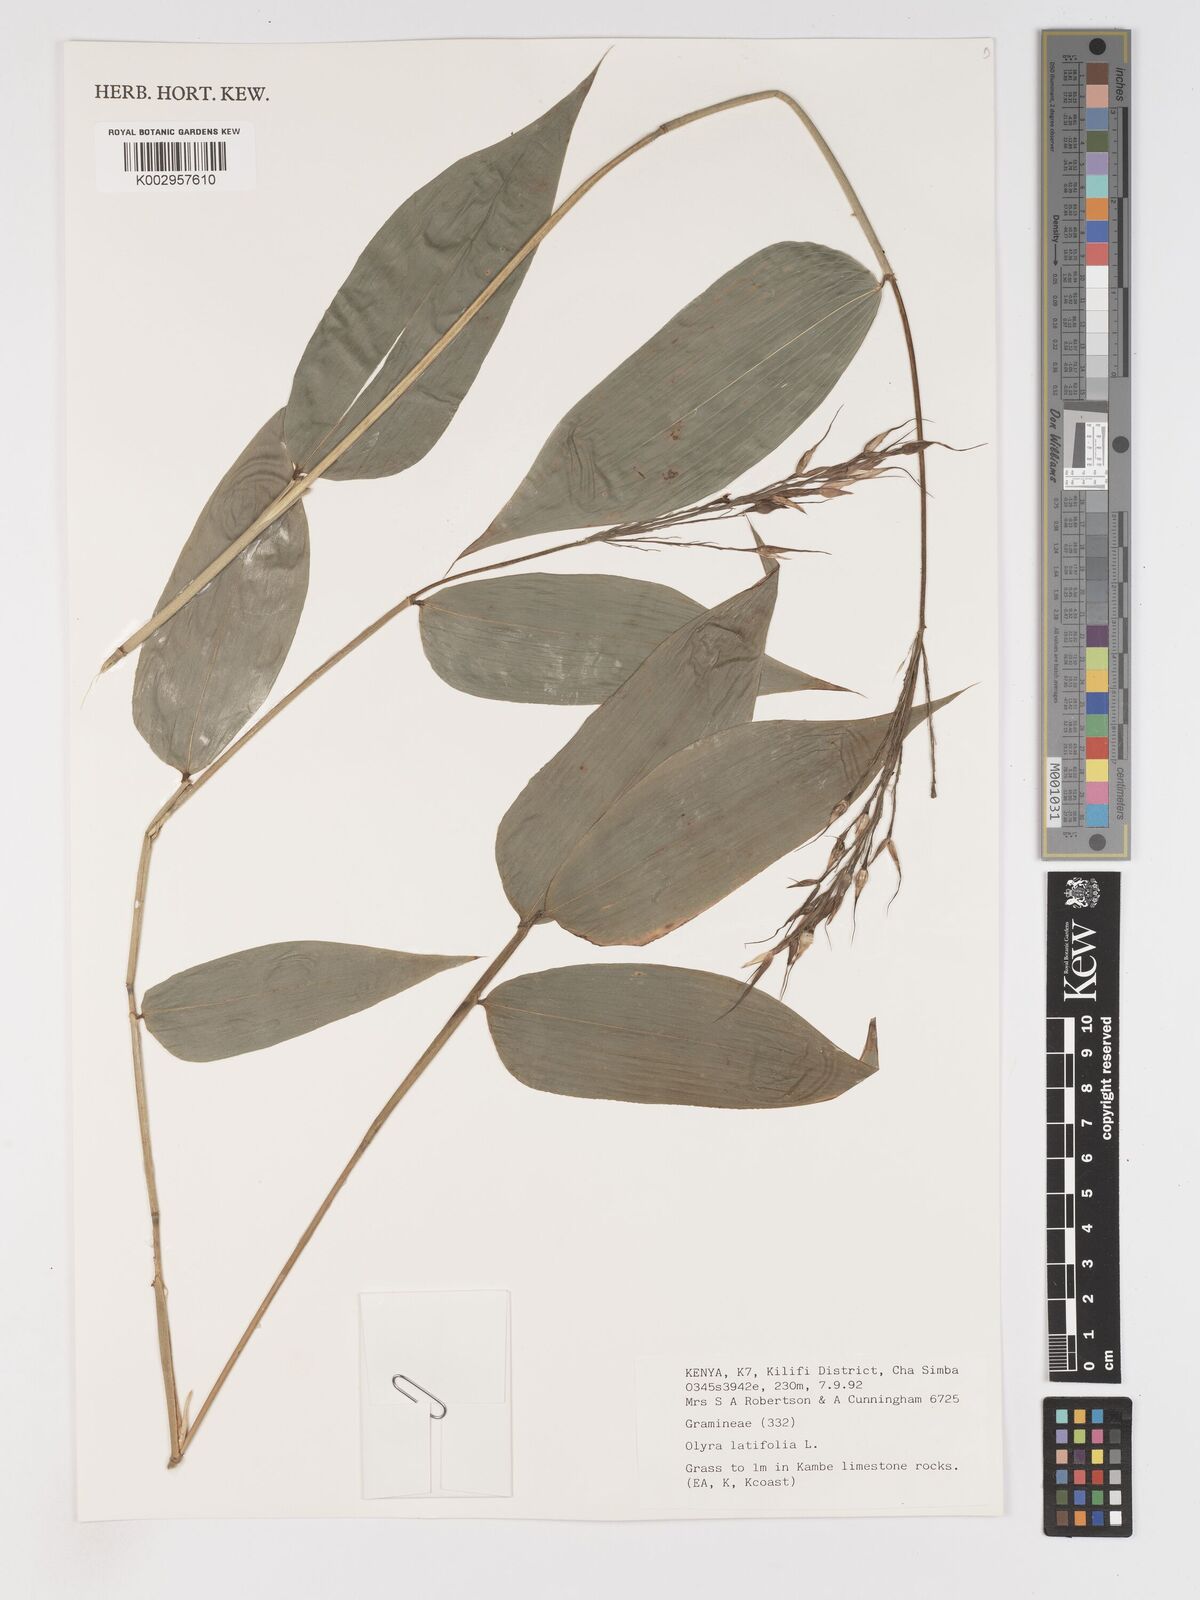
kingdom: Plantae
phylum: Tracheophyta
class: Liliopsida
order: Poales
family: Poaceae
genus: Olyra
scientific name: Olyra latifolia
